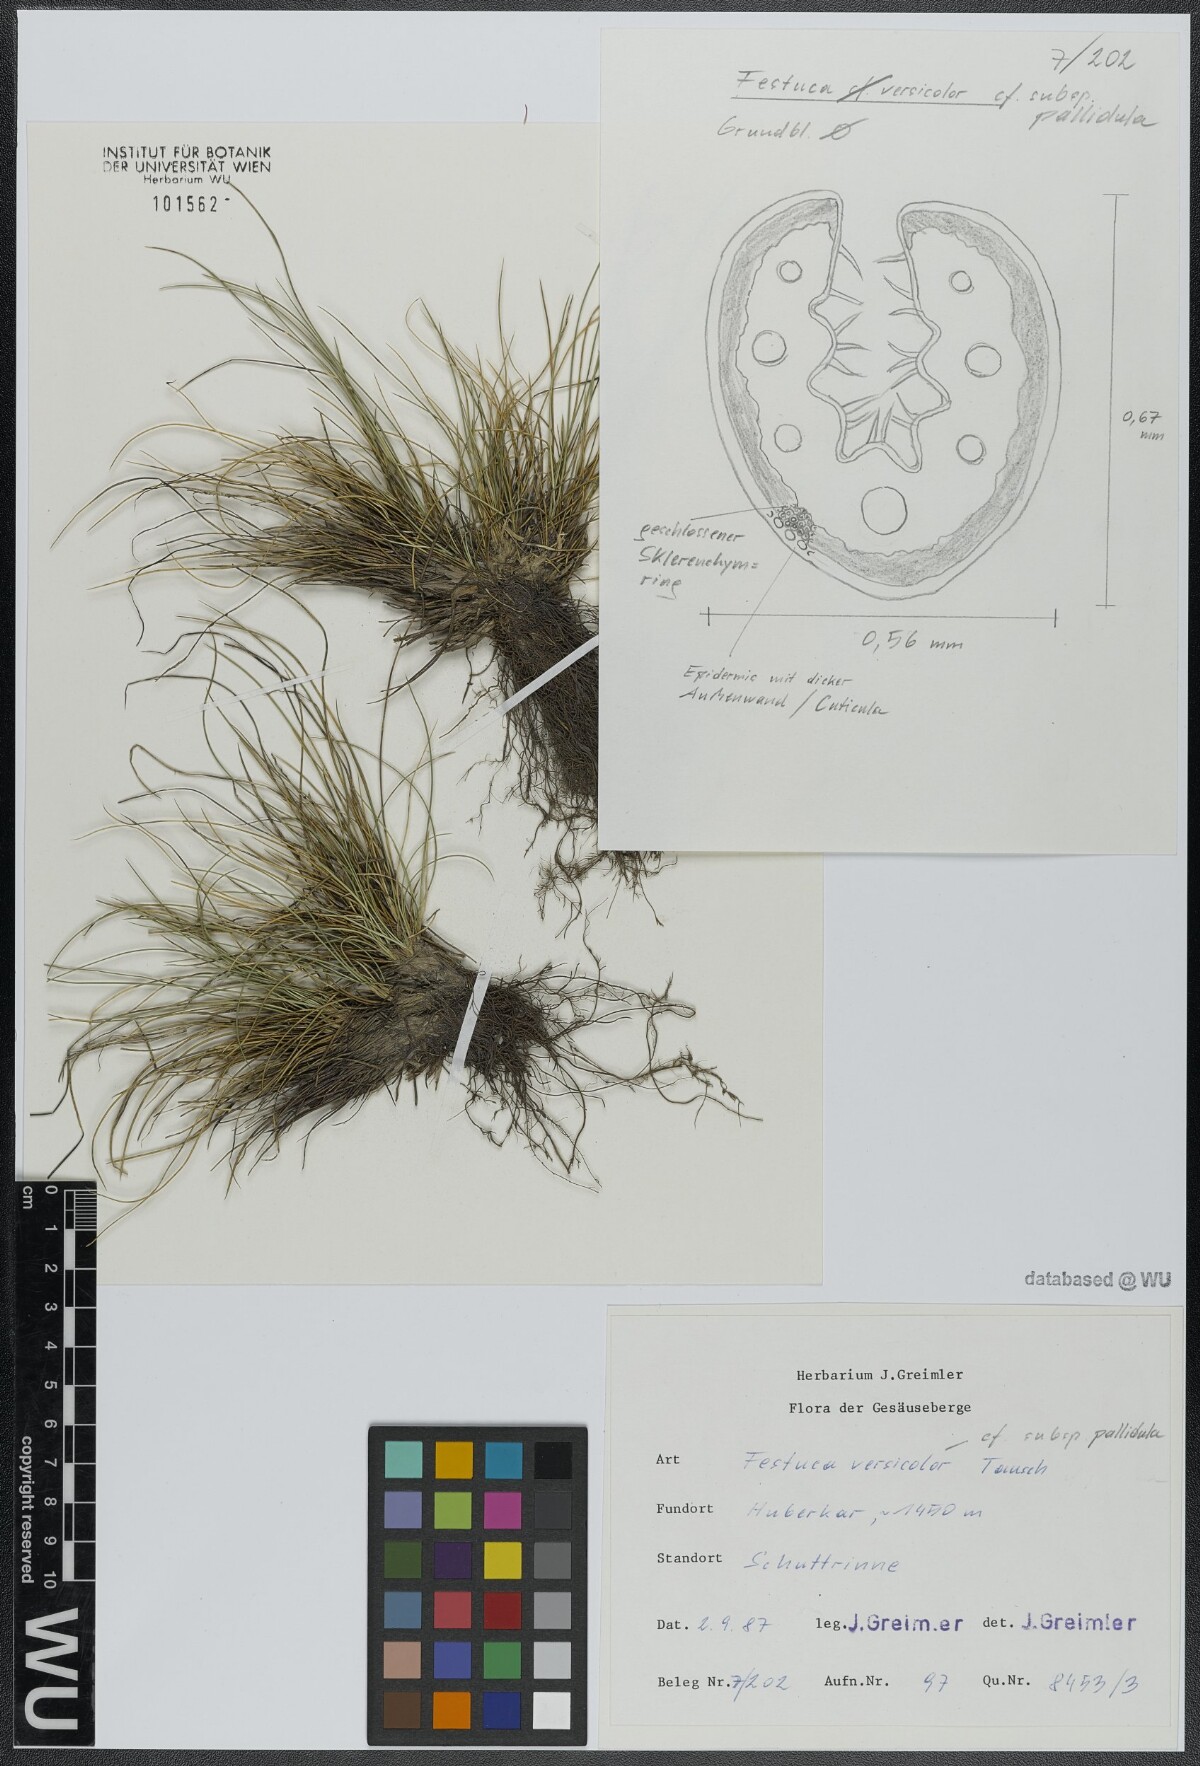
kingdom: Plantae
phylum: Tracheophyta
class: Liliopsida
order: Poales
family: Poaceae
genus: Festuca
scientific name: Festuca varia
